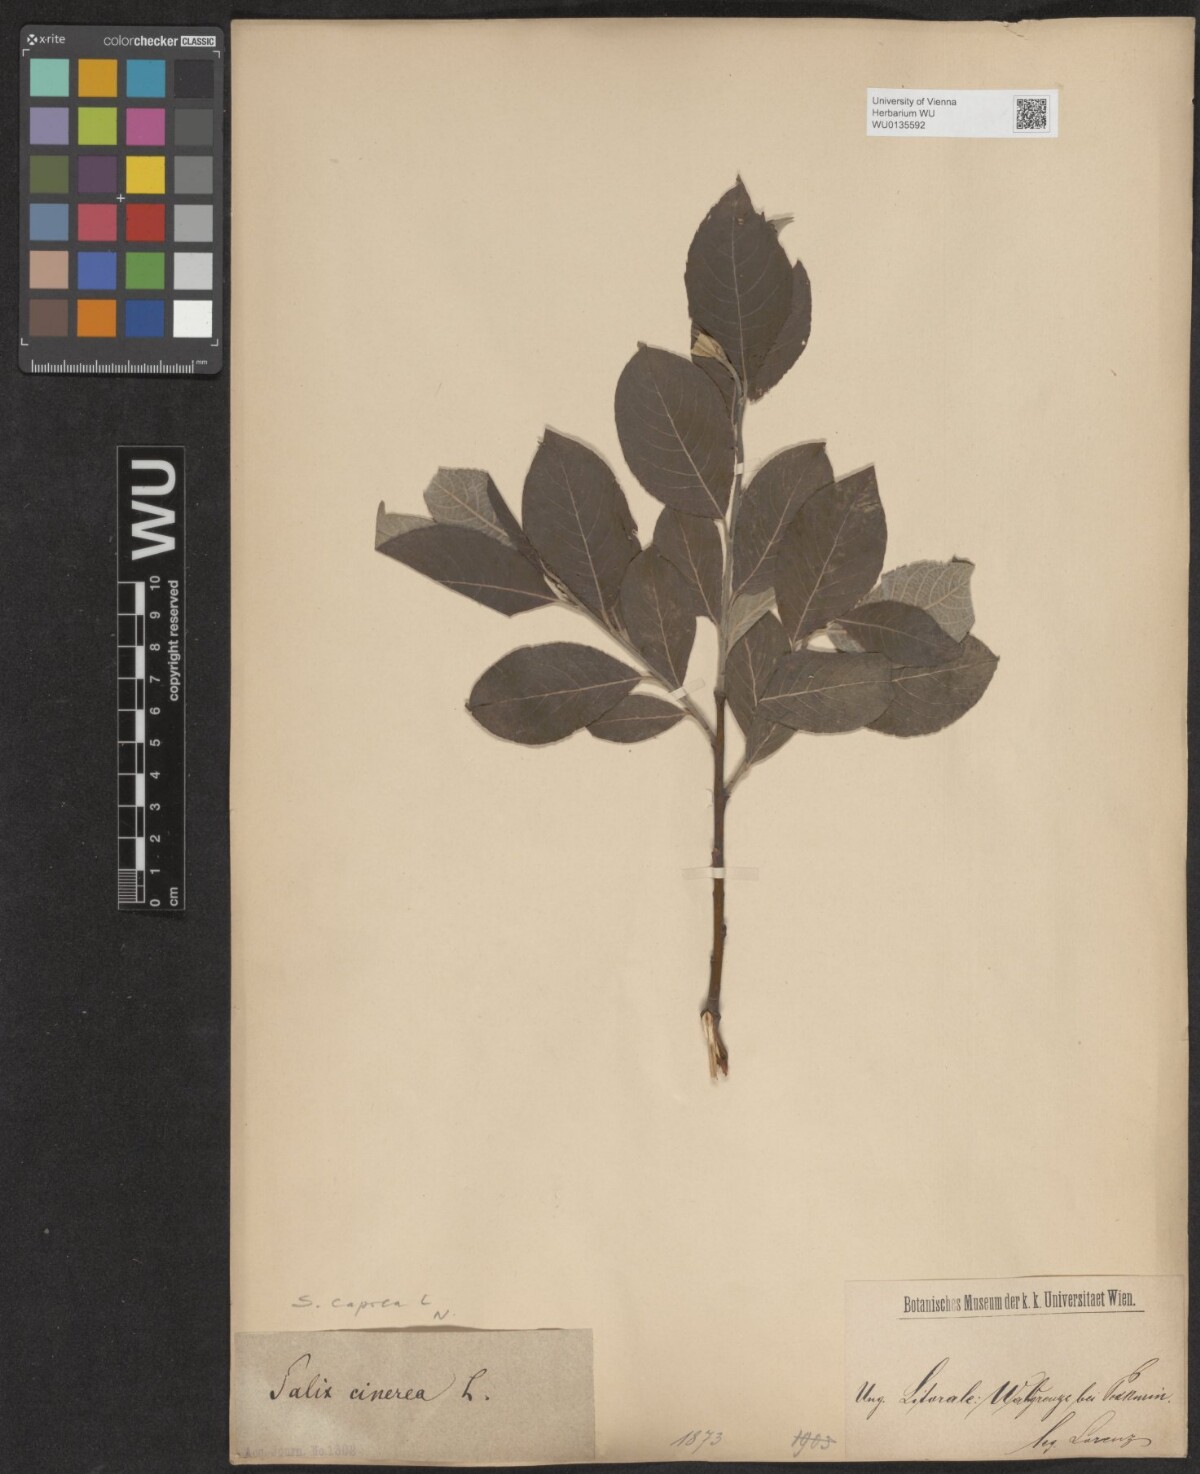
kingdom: Plantae
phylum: Tracheophyta
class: Magnoliopsida
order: Malpighiales
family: Salicaceae
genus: Salix
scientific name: Salix caprea
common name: Goat willow
